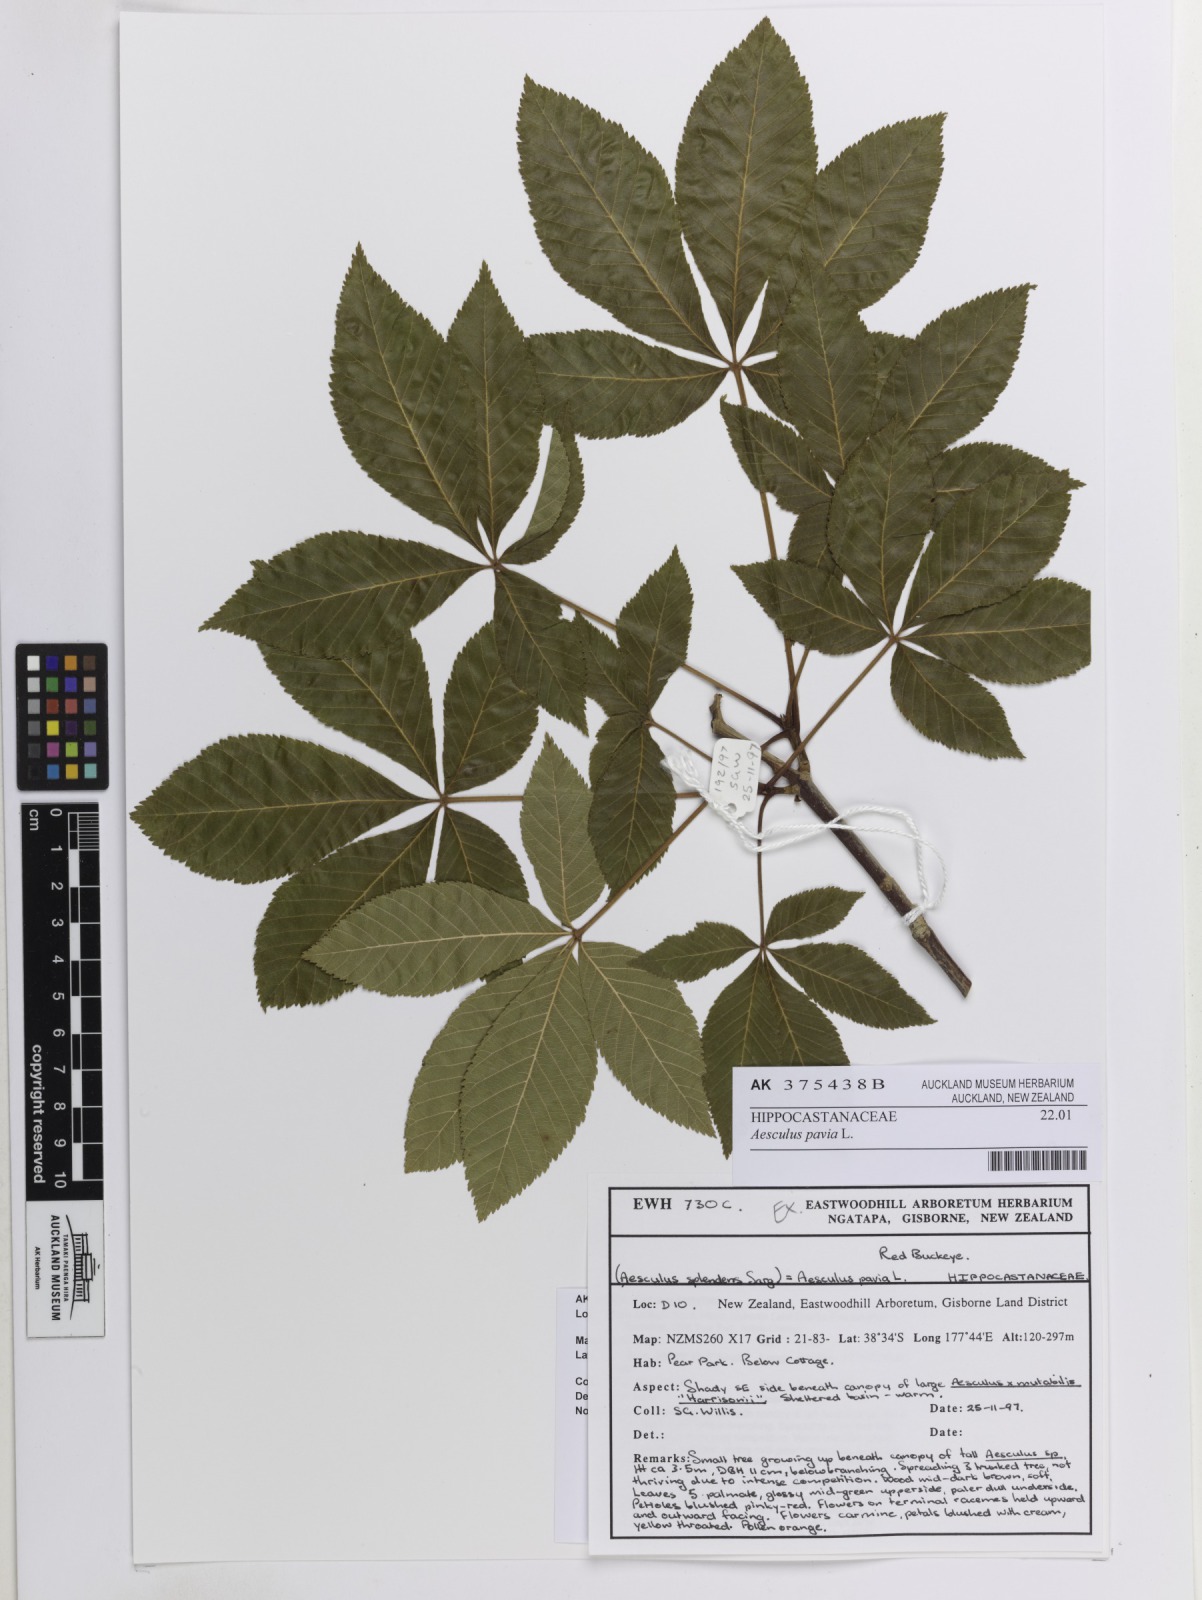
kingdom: Plantae
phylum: Tracheophyta
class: Magnoliopsida
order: Sapindales
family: Sapindaceae
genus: Aesculus
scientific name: Aesculus pavia
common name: Red buckeye
